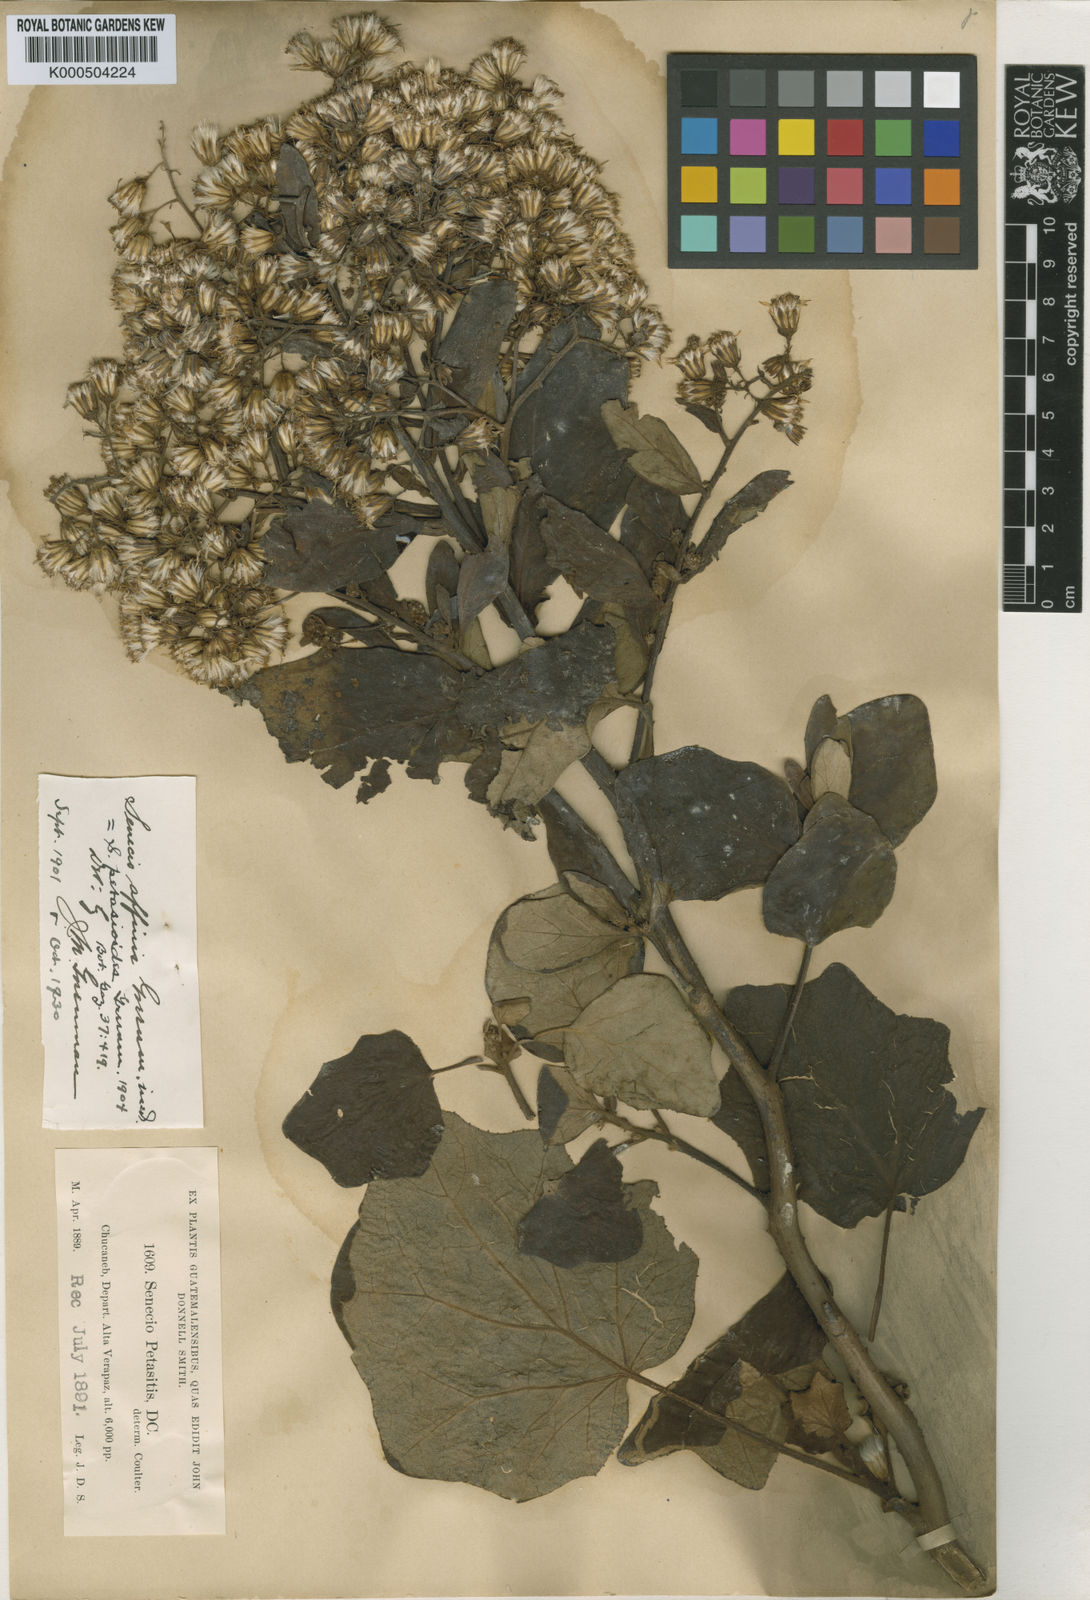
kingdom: Plantae
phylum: Tracheophyta
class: Magnoliopsida
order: Asterales
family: Asteraceae
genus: Roldana
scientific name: Roldana petasioides
